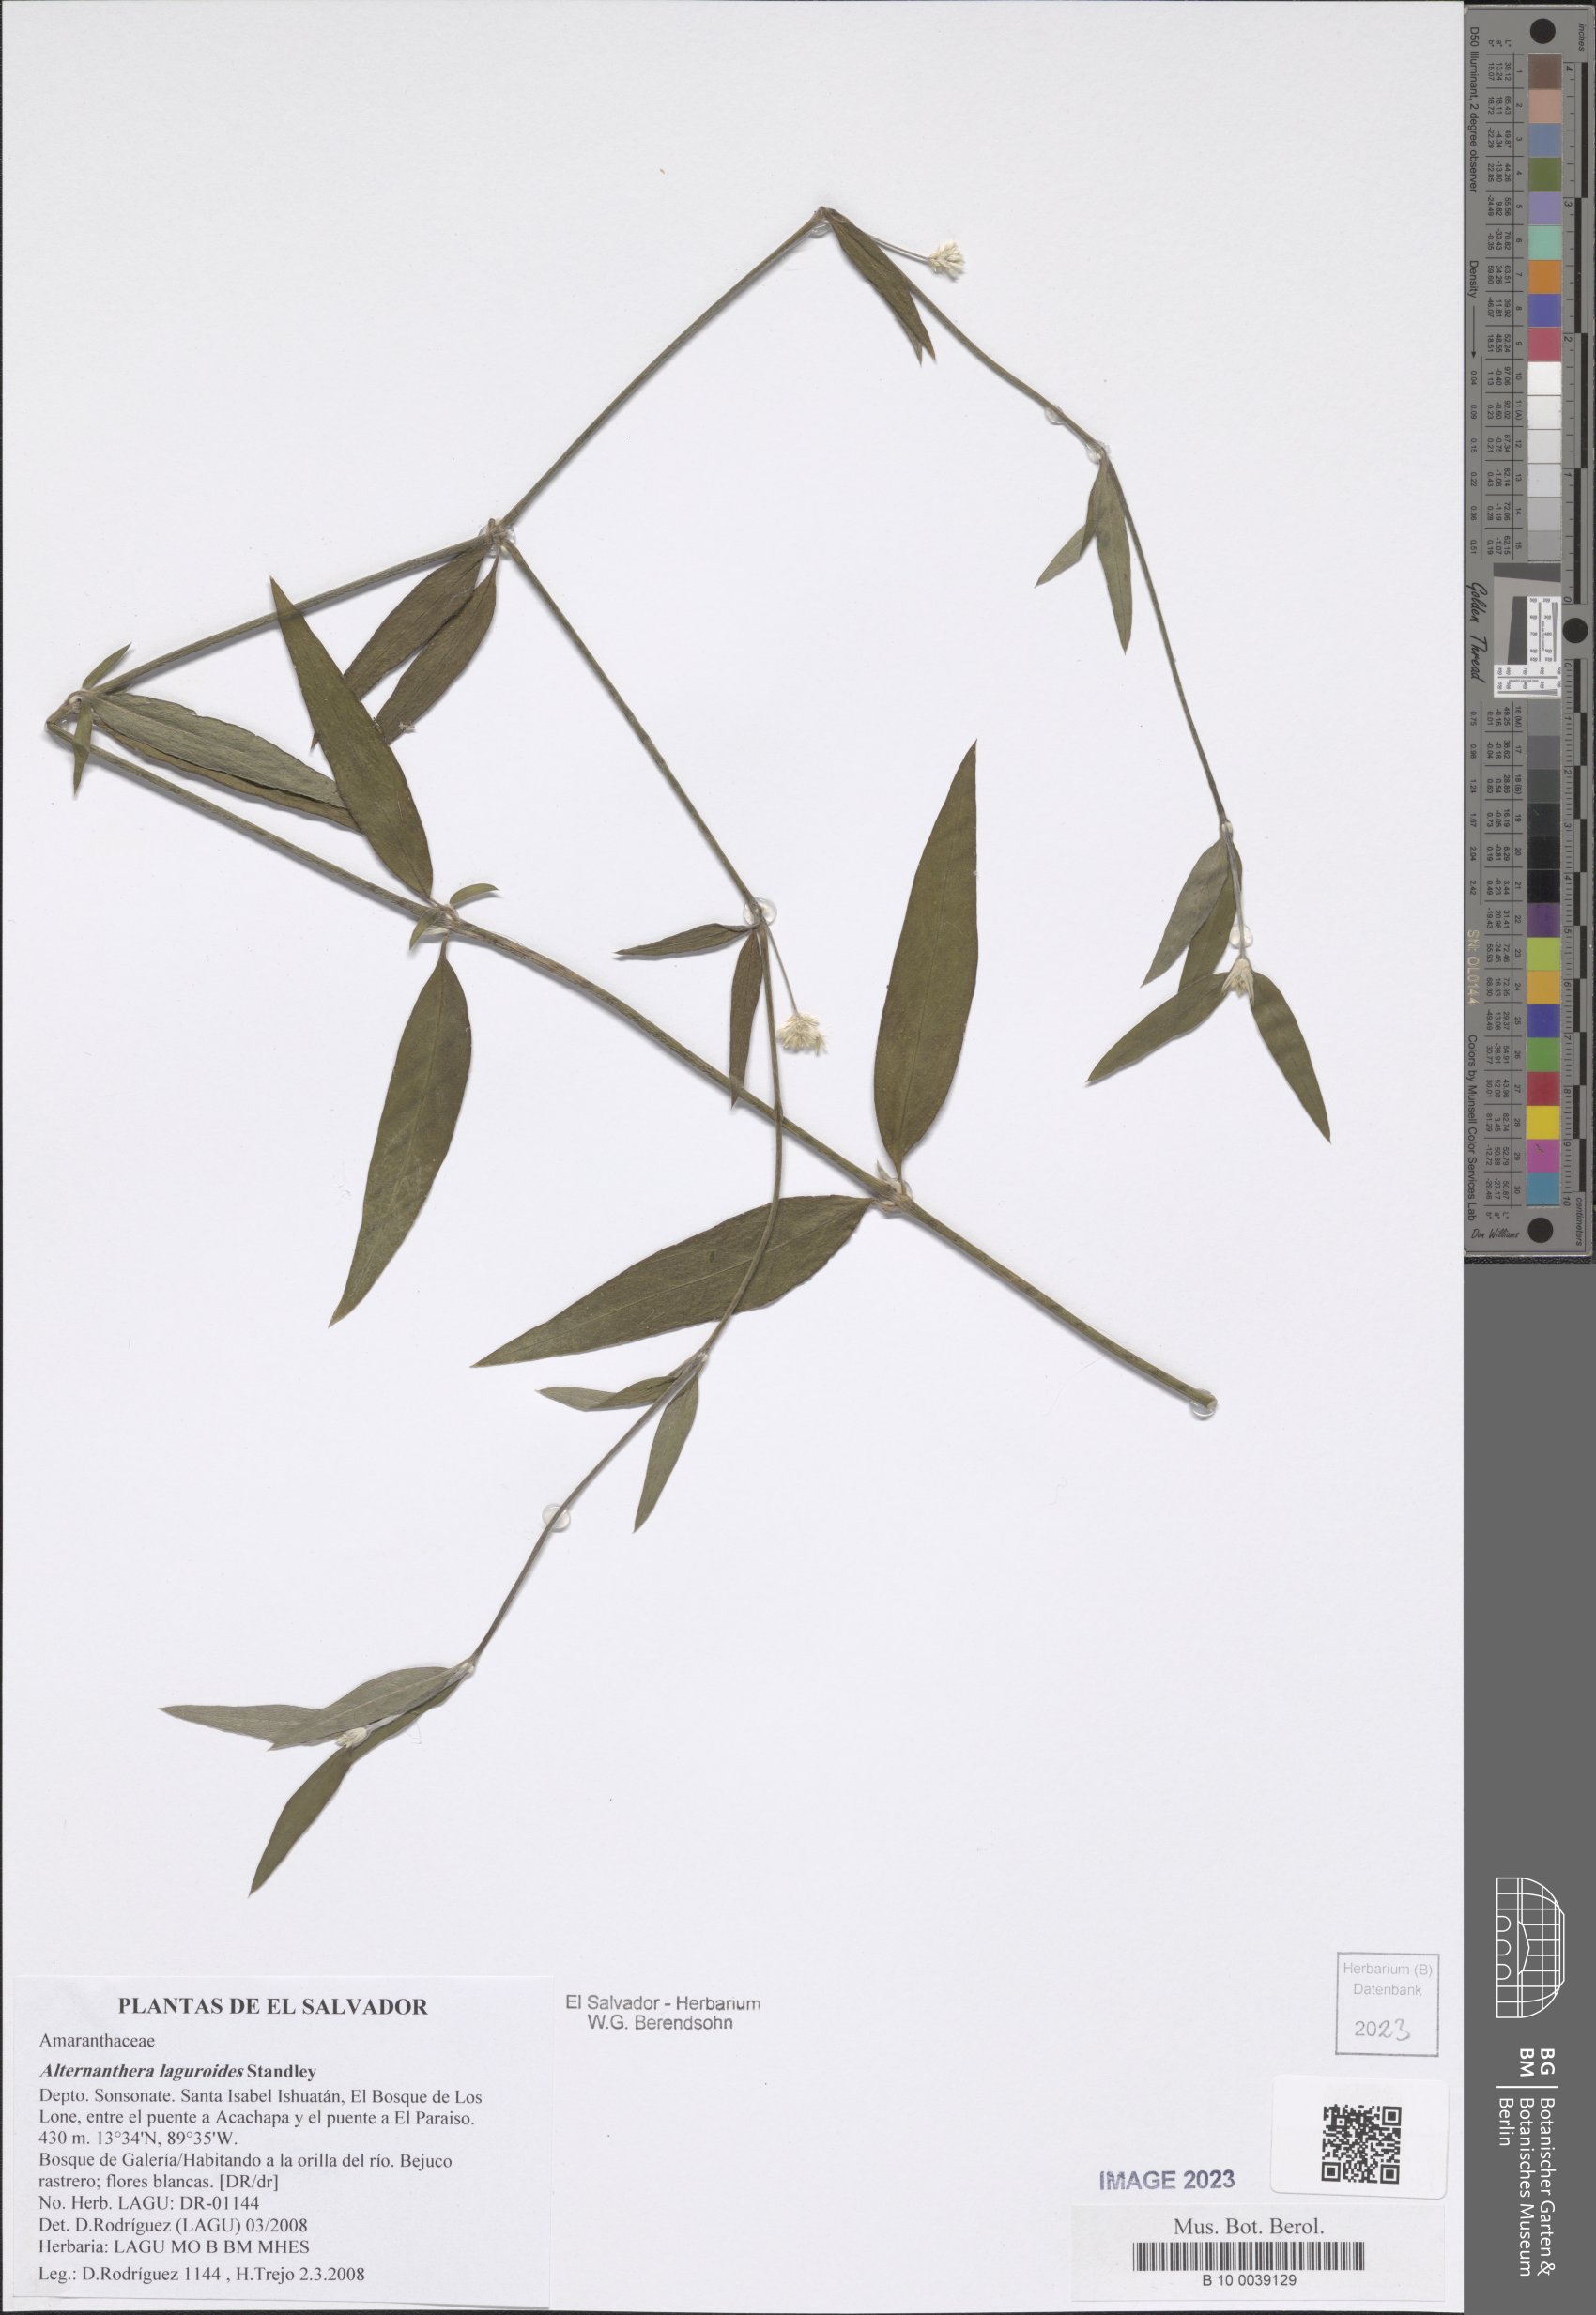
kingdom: Plantae
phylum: Tracheophyta
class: Magnoliopsida
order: Caryophyllales
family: Amaranthaceae
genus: Alternanthera
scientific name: Alternanthera laguroides
